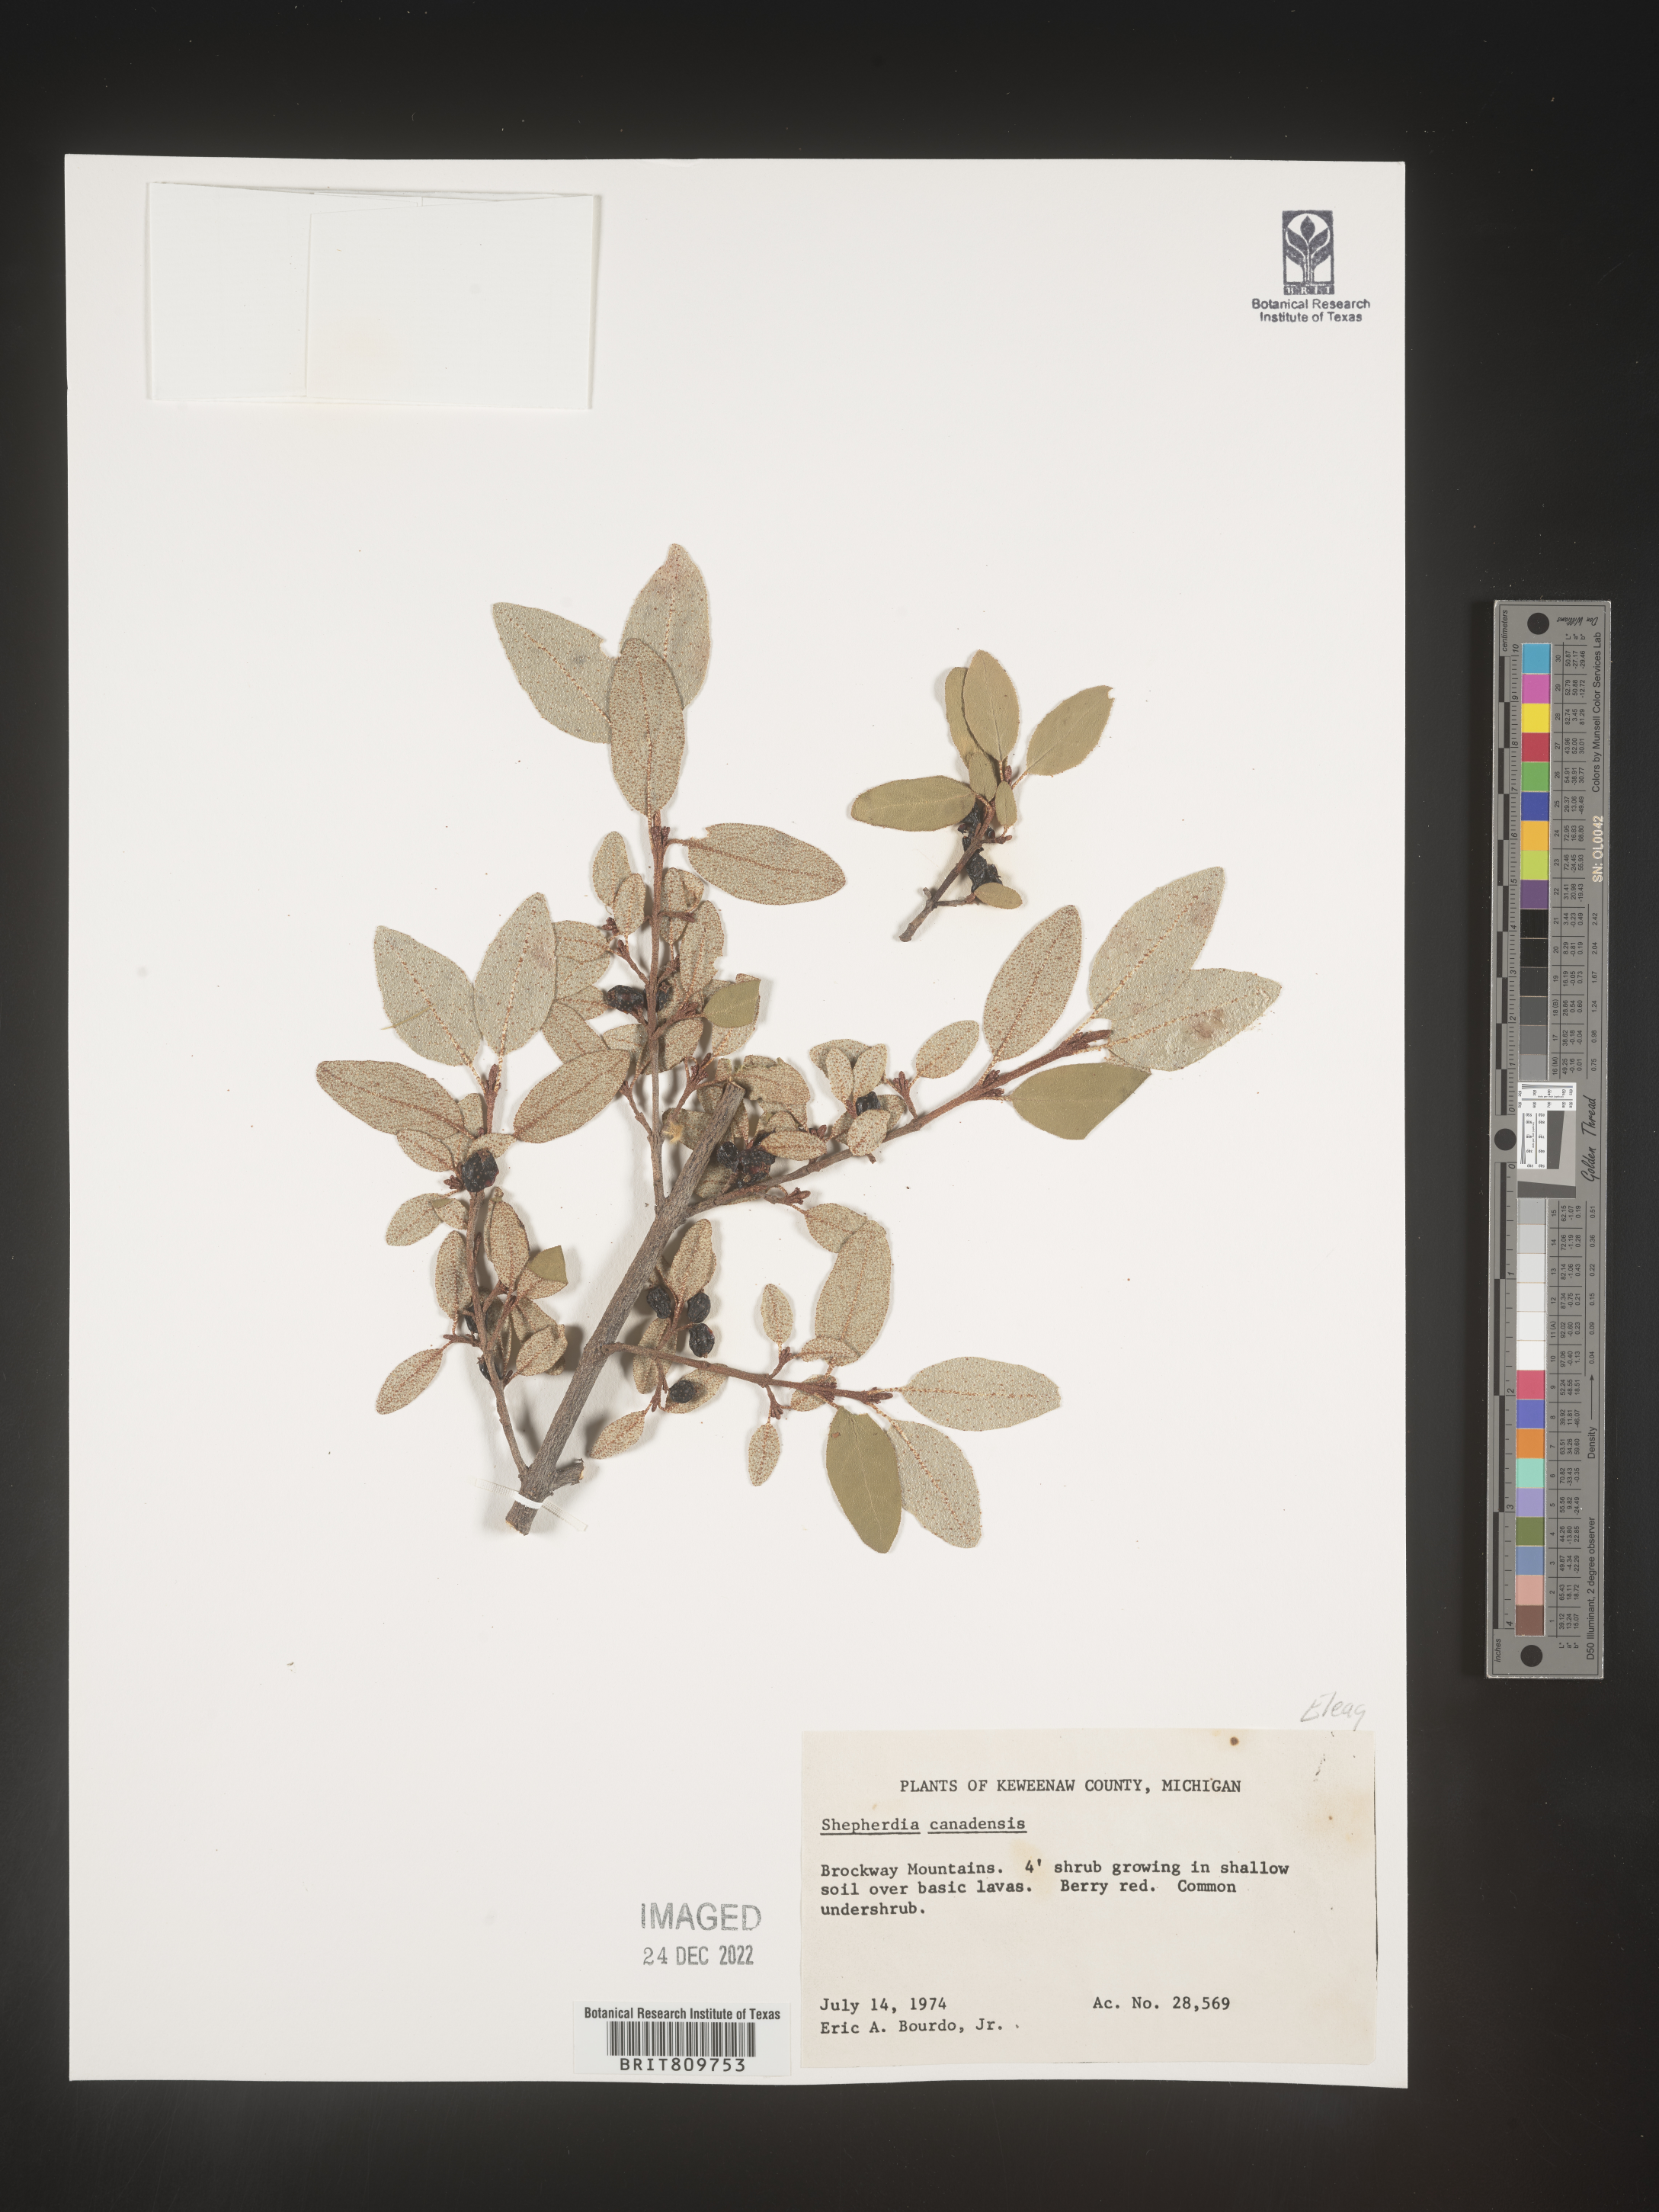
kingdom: Plantae
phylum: Tracheophyta
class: Magnoliopsida
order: Rosales
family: Elaeagnaceae
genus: Shepherdia
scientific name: Shepherdia canadensis
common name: Soapberry
